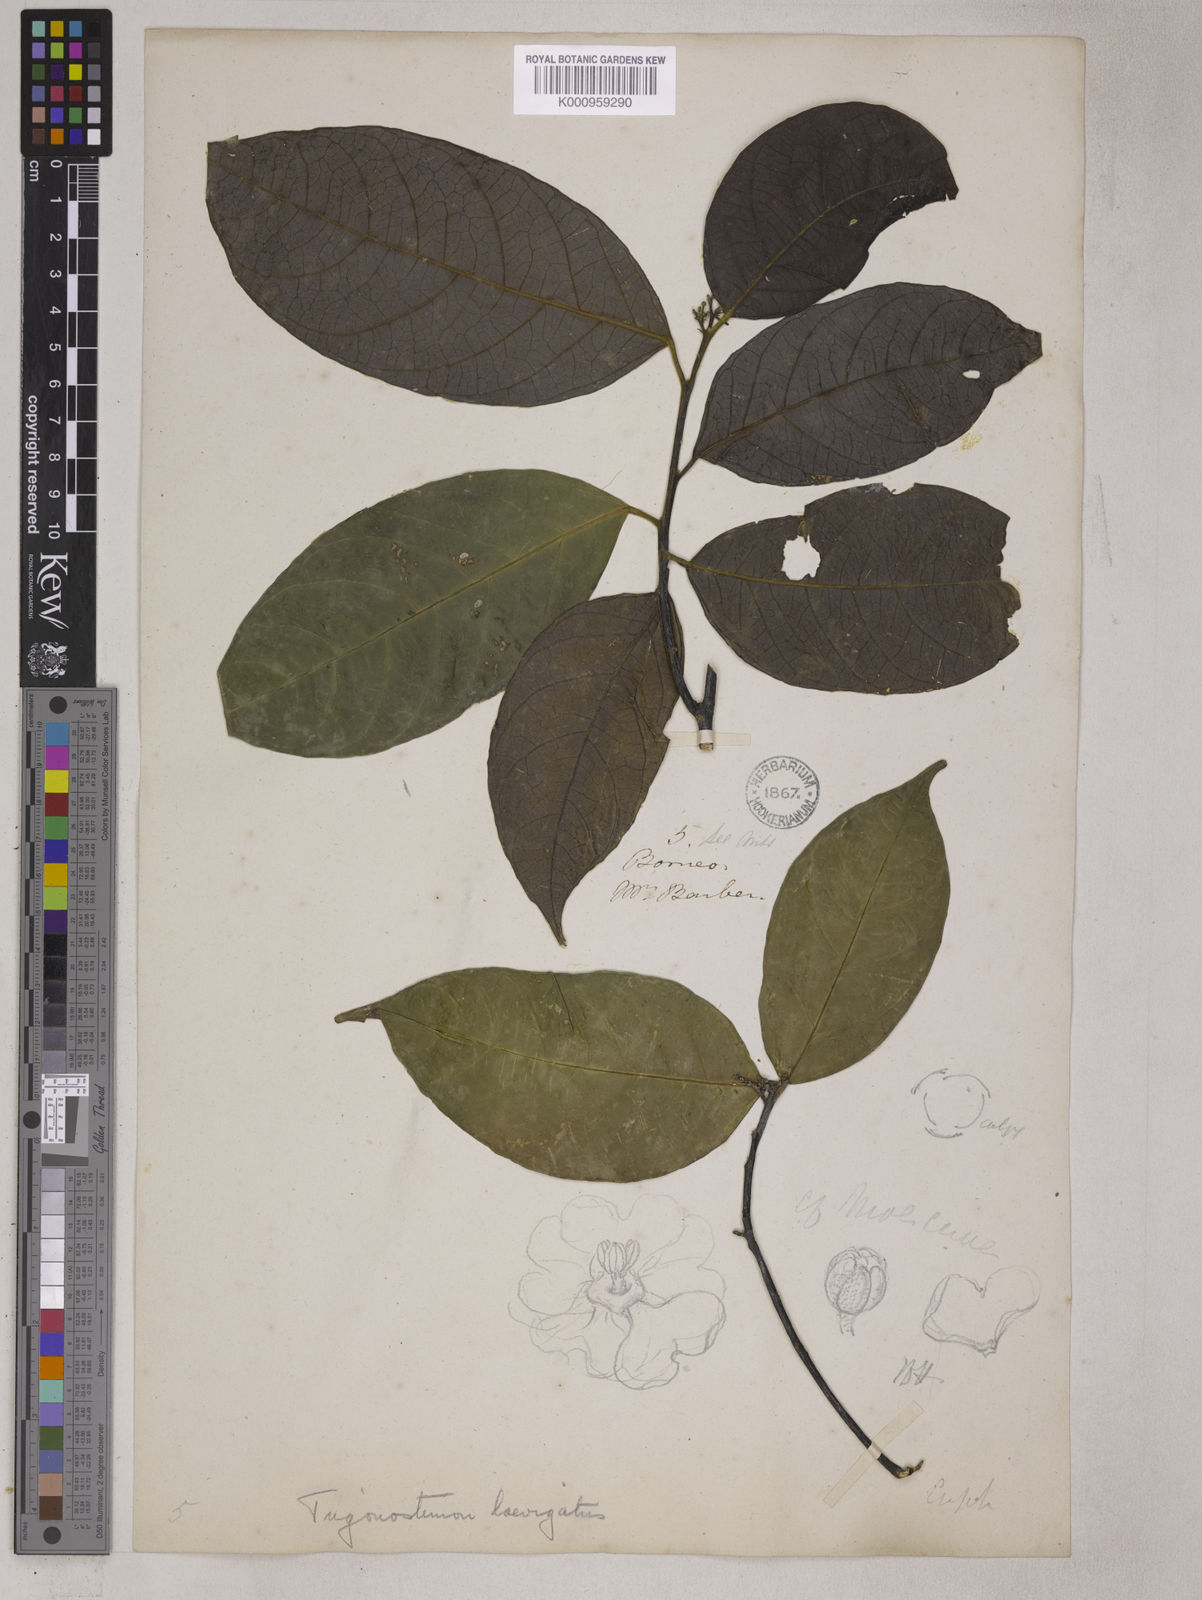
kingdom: Plantae
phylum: Tracheophyta
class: Magnoliopsida
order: Malpighiales
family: Euphorbiaceae
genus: Trigonostemon
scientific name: Trigonostemon laevigatus
